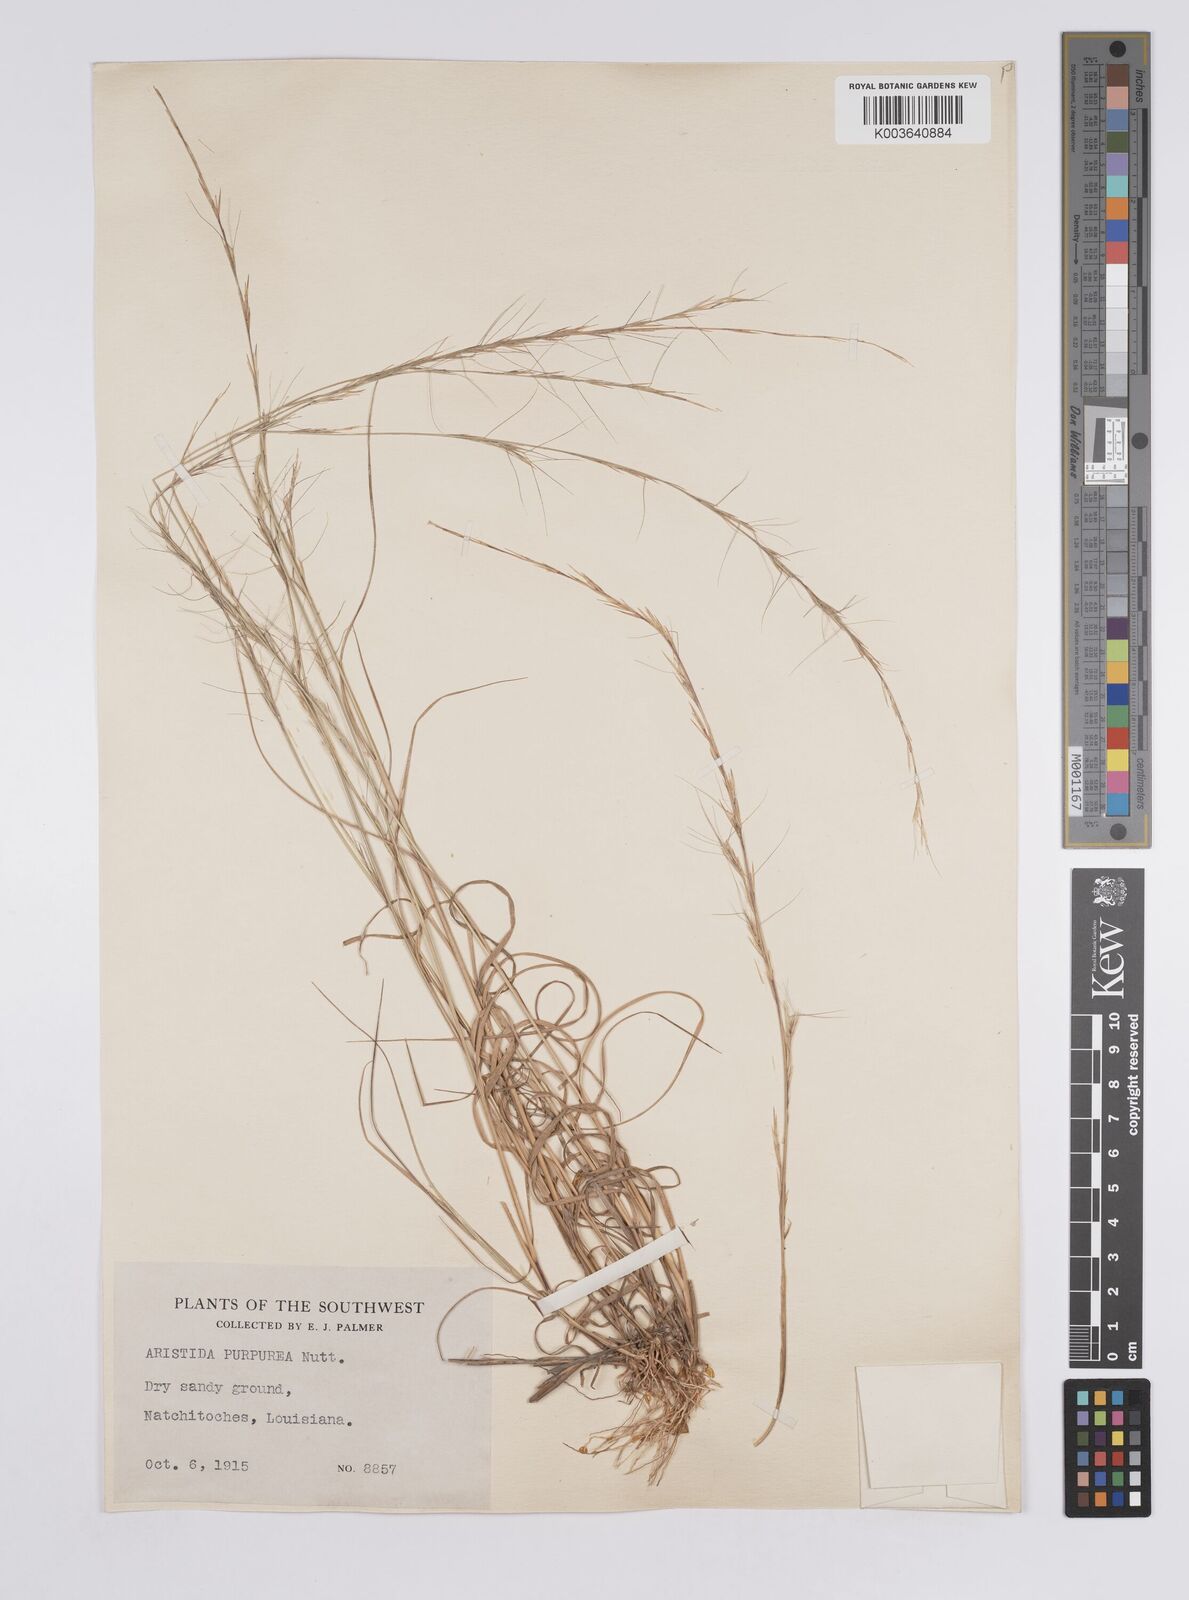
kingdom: Plantae
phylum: Tracheophyta
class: Liliopsida
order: Poales
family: Poaceae
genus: Aristida
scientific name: Aristida purpurea
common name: Purple threeawn
